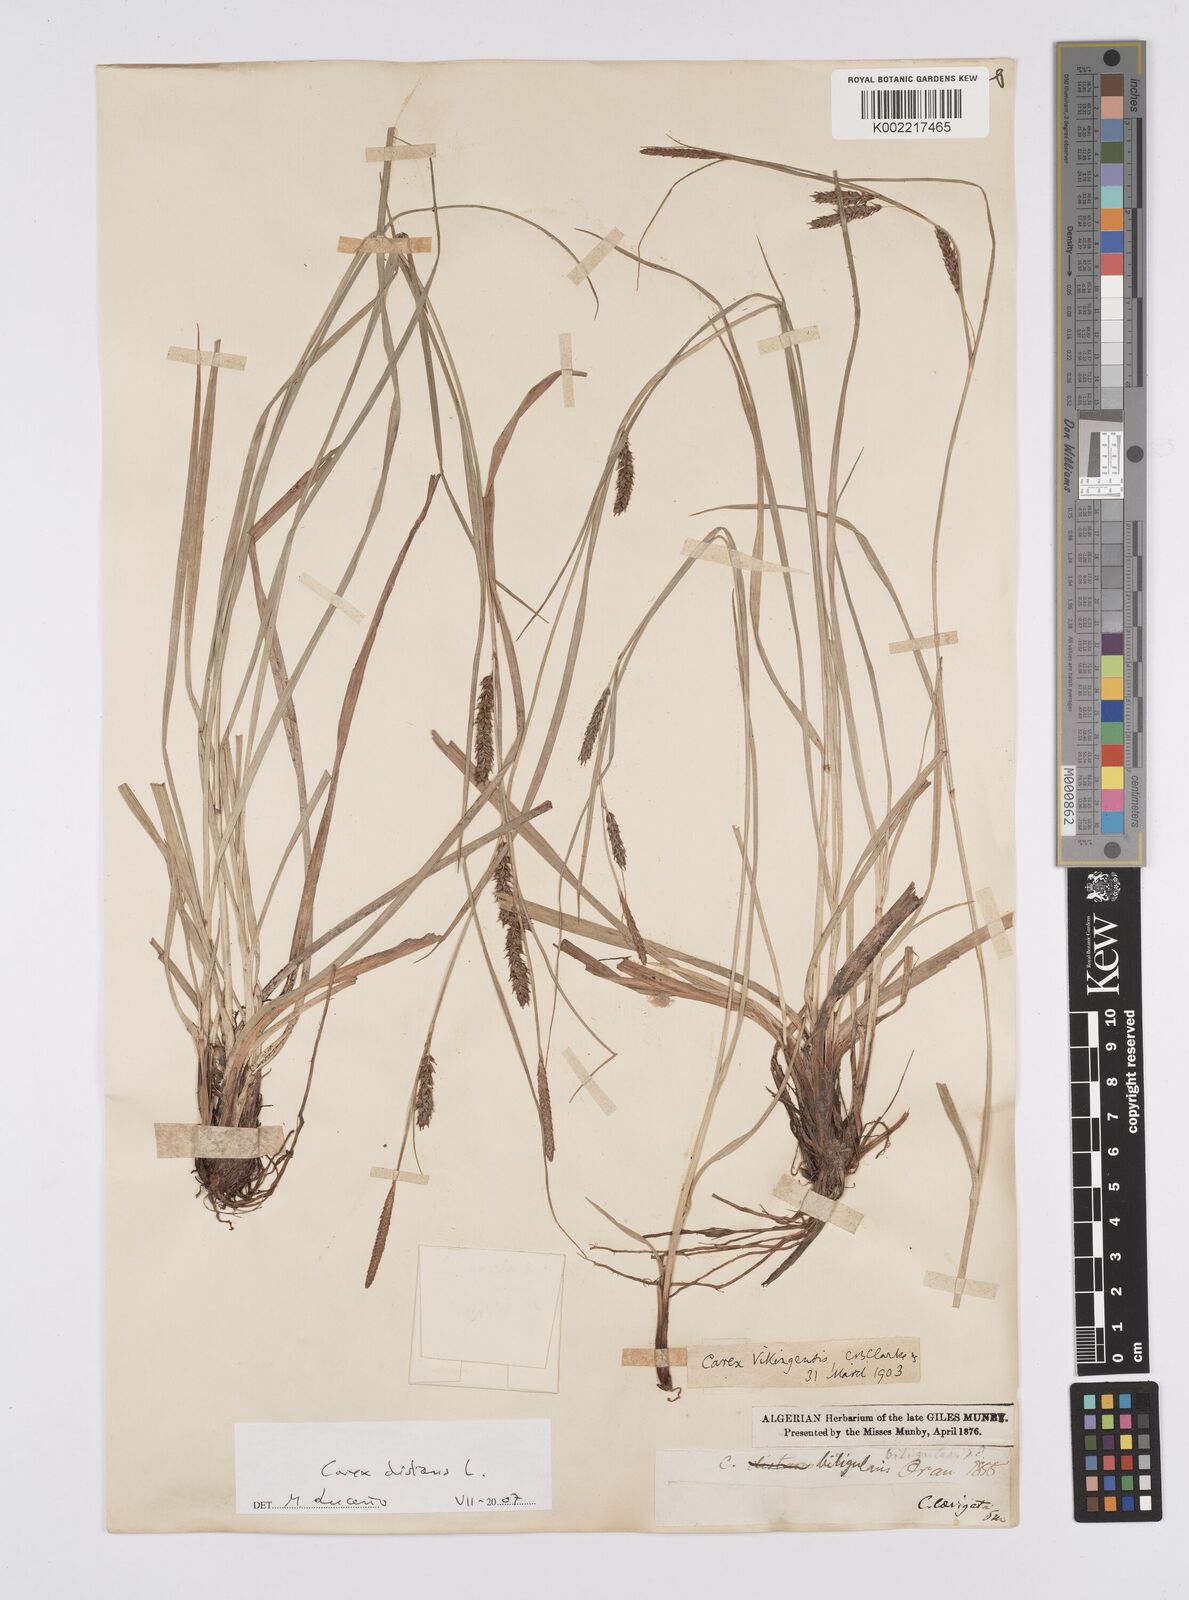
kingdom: Plantae
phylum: Tracheophyta
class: Liliopsida
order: Poales
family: Cyperaceae
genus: Carex
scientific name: Carex distans
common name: Distant sedge
